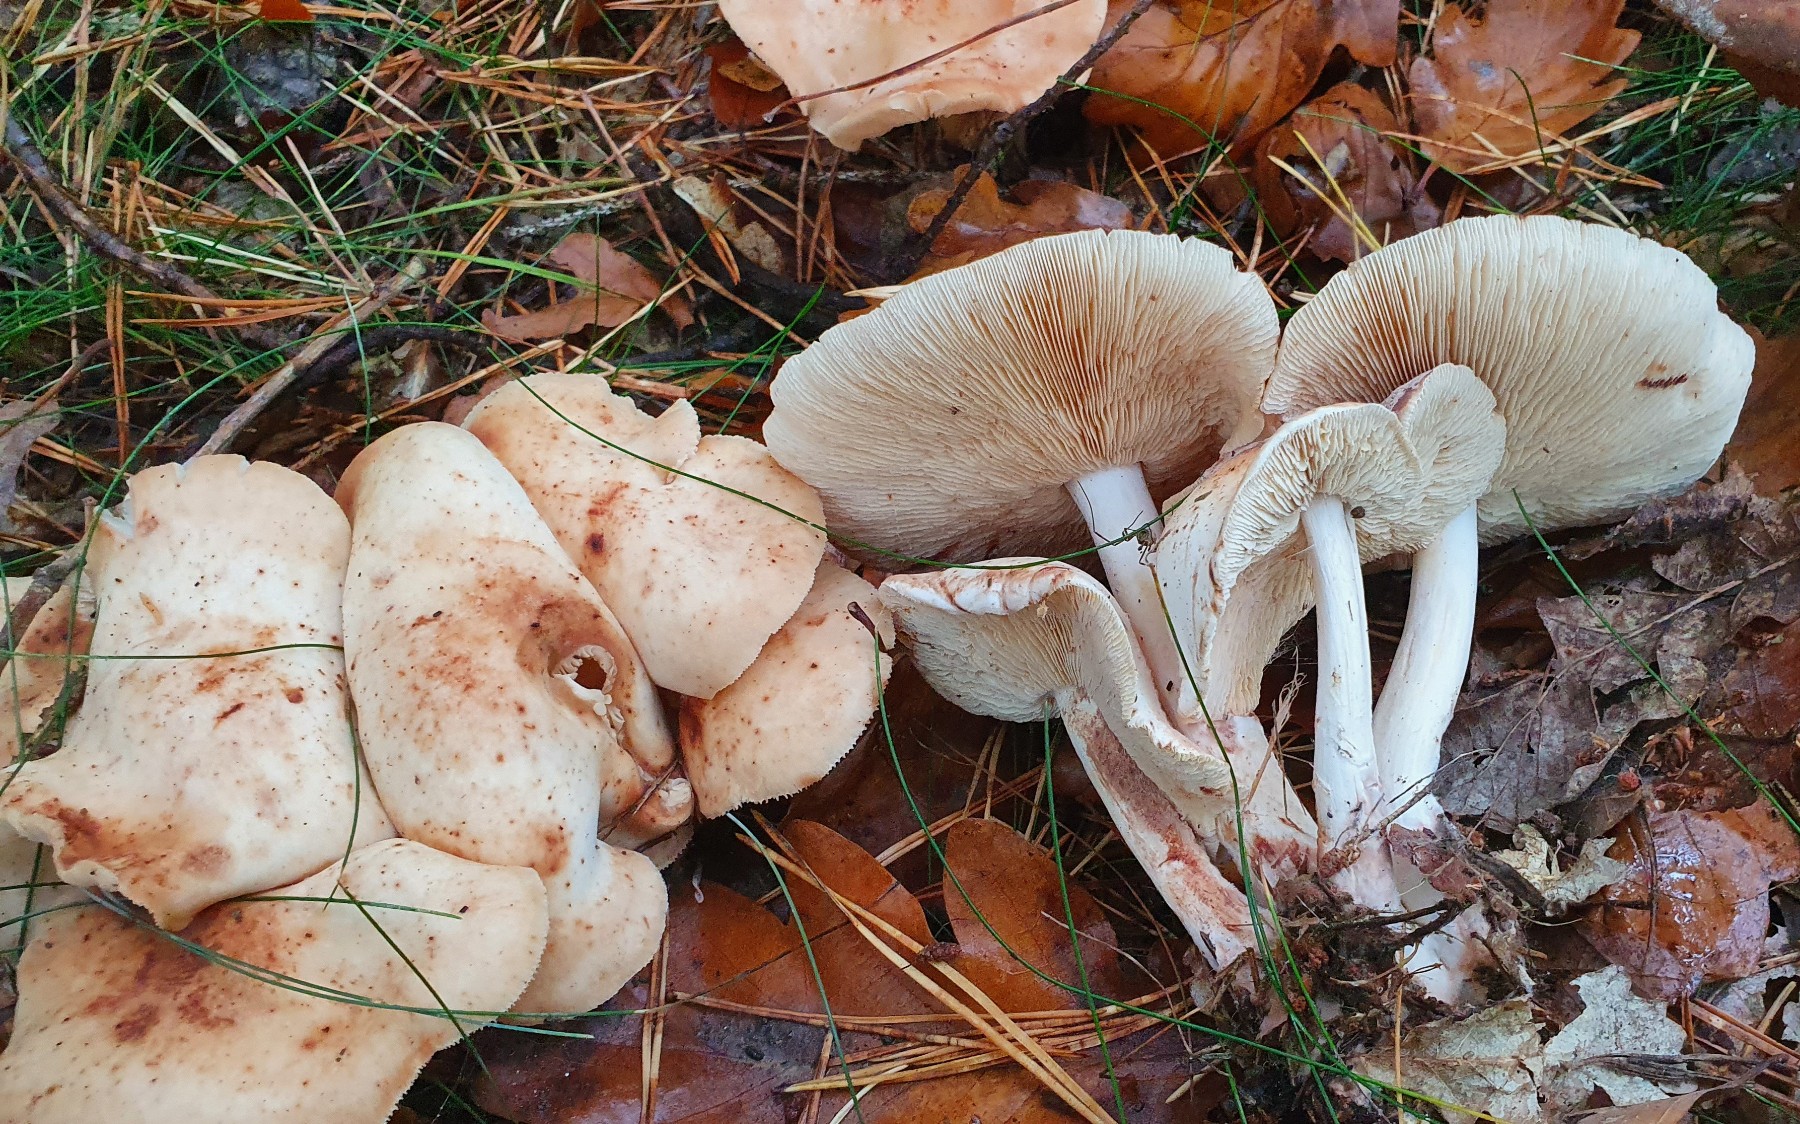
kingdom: Fungi
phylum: Basidiomycota
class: Agaricomycetes
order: Agaricales
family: Omphalotaceae
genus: Rhodocollybia
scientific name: Rhodocollybia maculata
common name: plettet fladhat
